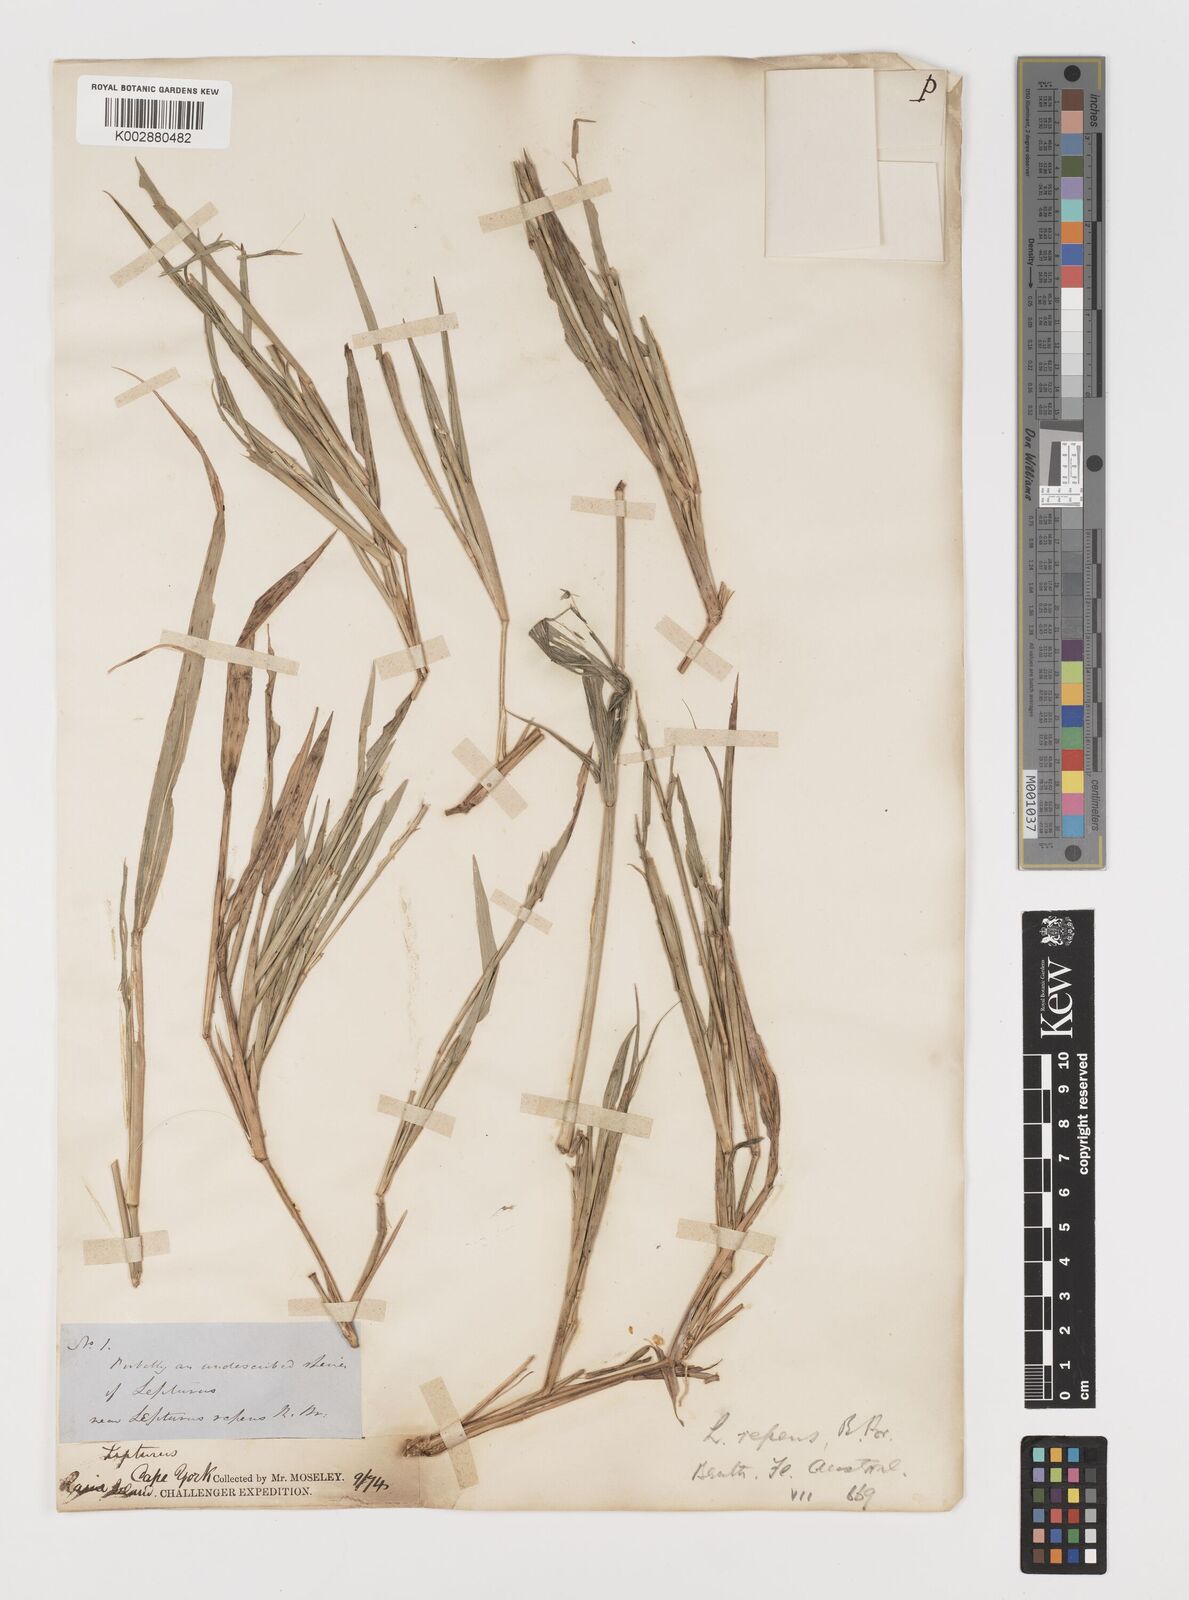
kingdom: Plantae
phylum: Tracheophyta
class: Liliopsida
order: Poales
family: Poaceae
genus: Lepturus
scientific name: Lepturus repens
